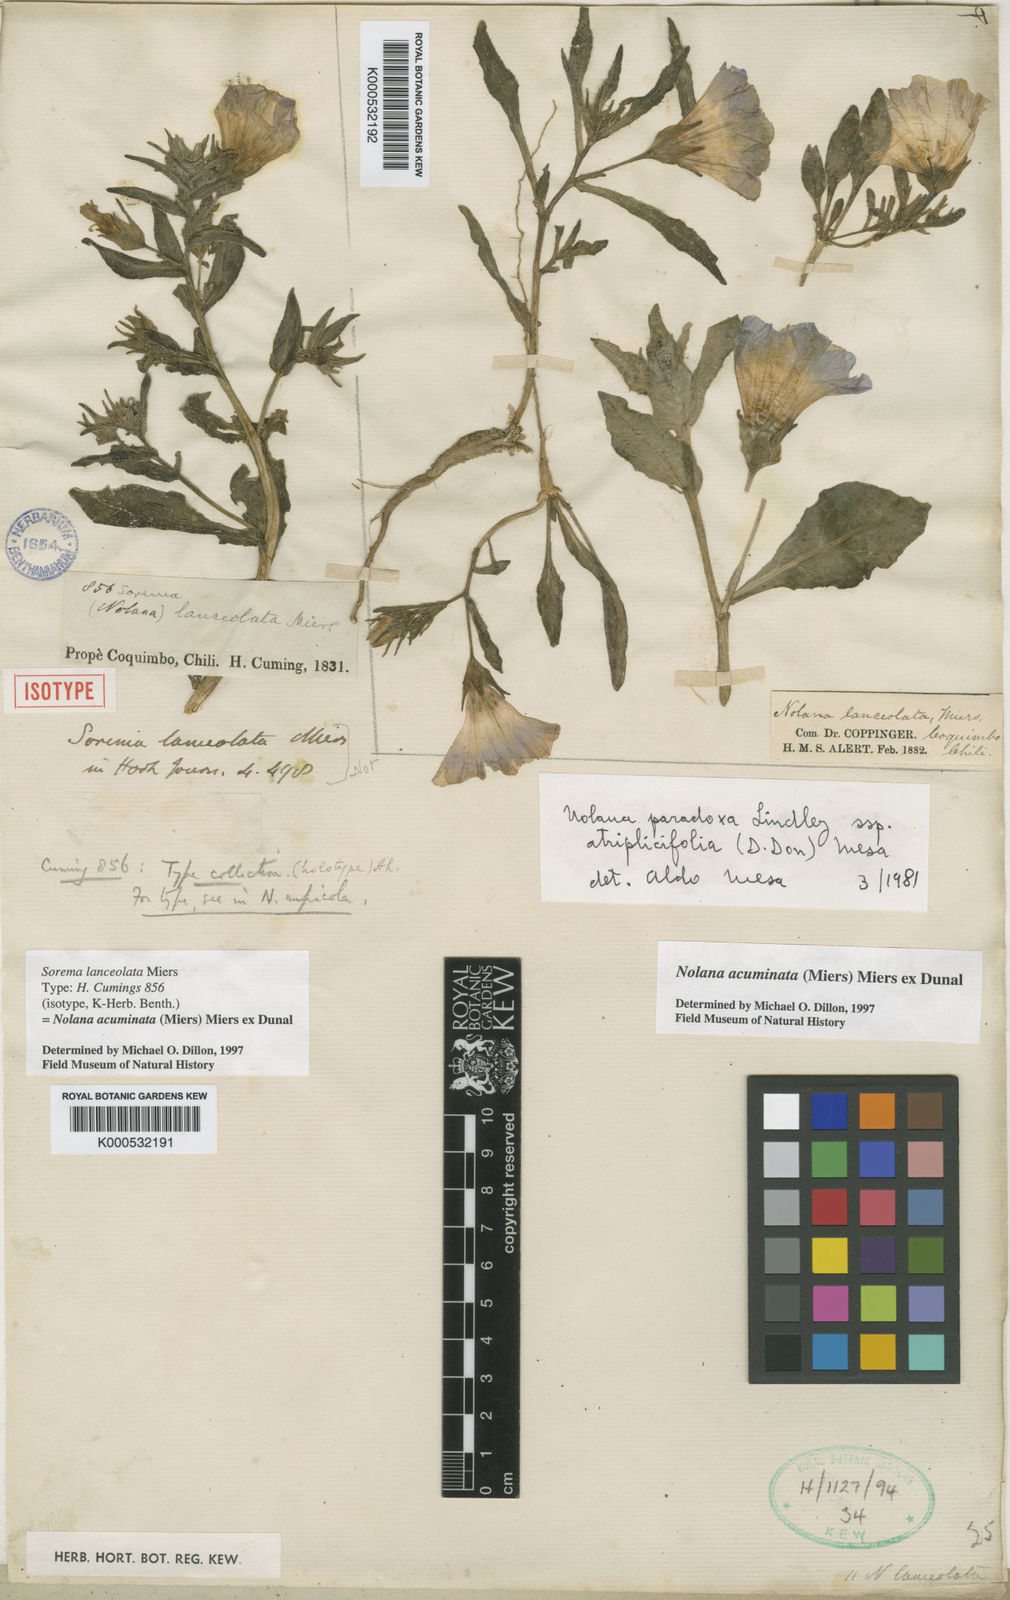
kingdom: Plantae
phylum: Tracheophyta
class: Magnoliopsida
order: Solanales
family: Solanaceae
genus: Nolana
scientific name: Nolana paradoxa
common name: Chilean-bellflower
